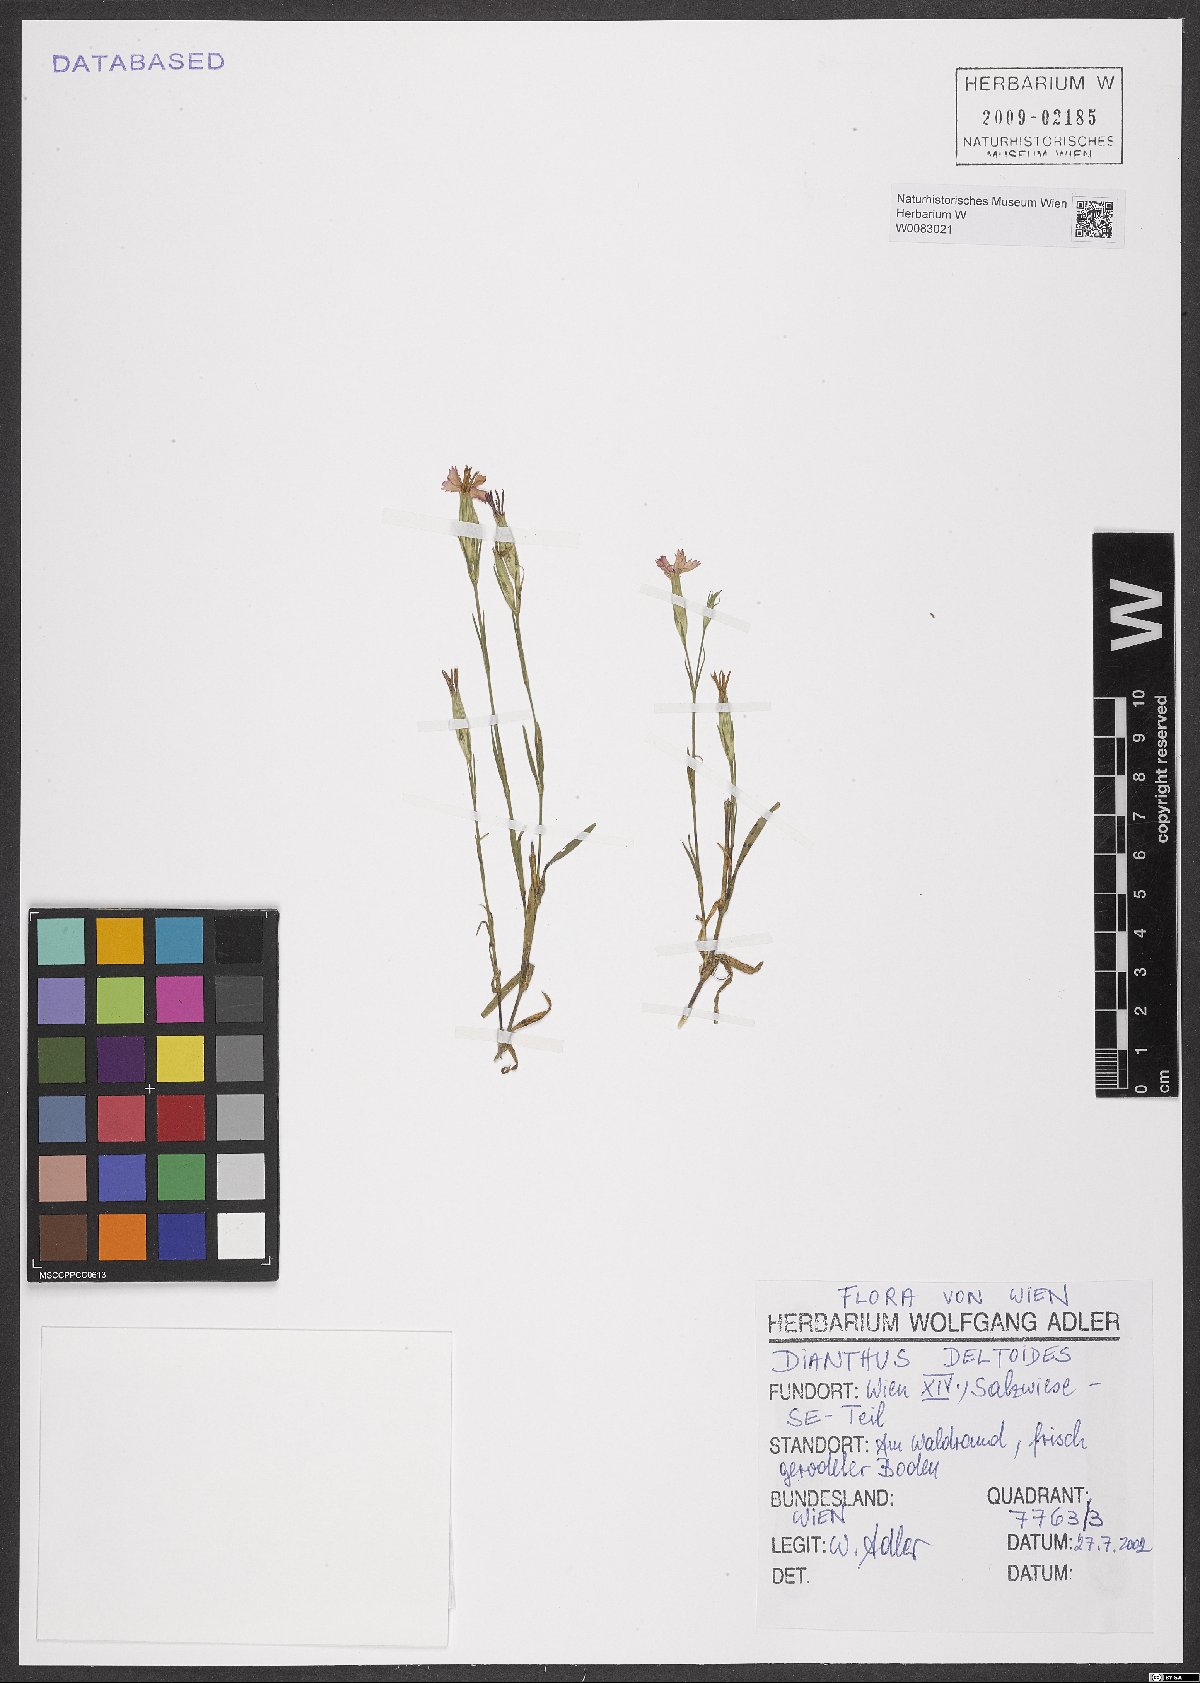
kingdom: Plantae
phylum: Tracheophyta
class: Magnoliopsida
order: Caryophyllales
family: Caryophyllaceae
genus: Dianthus
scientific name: Dianthus deltoides
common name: Maiden pink
